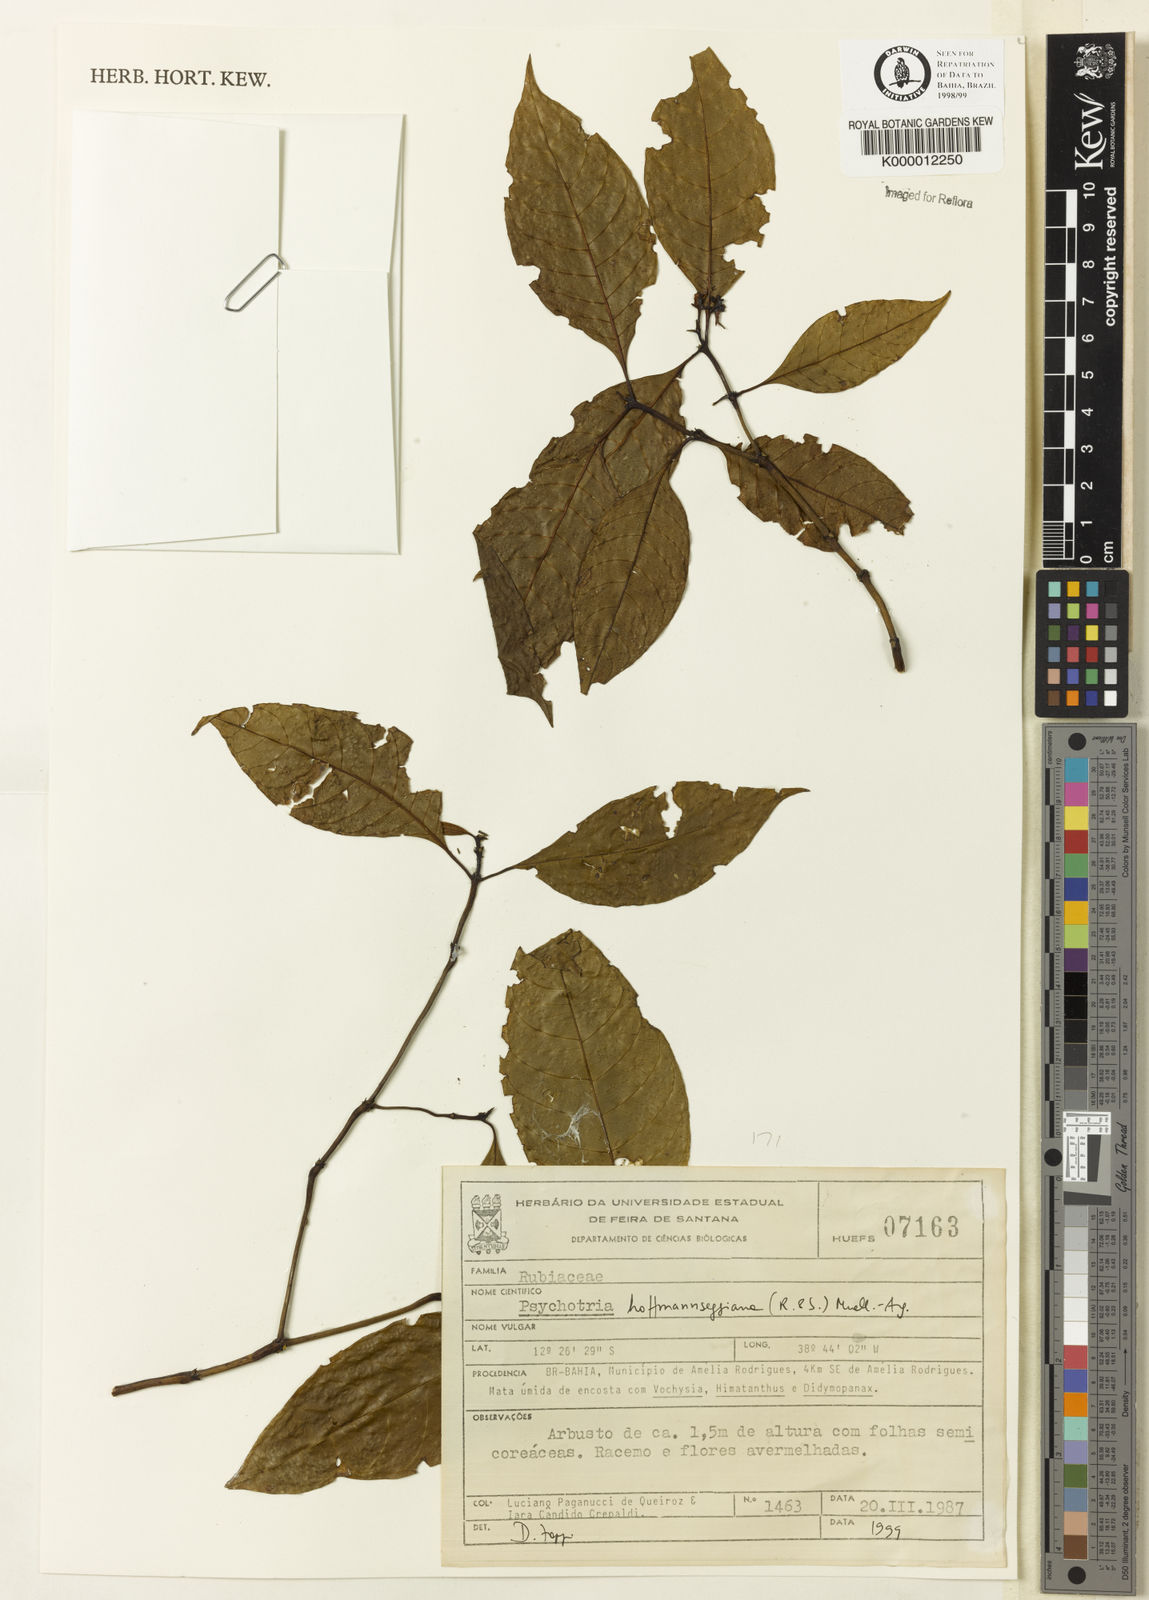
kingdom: Plantae
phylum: Tracheophyta
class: Magnoliopsida
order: Gentianales
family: Rubiaceae
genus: Psychotria
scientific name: Psychotria
